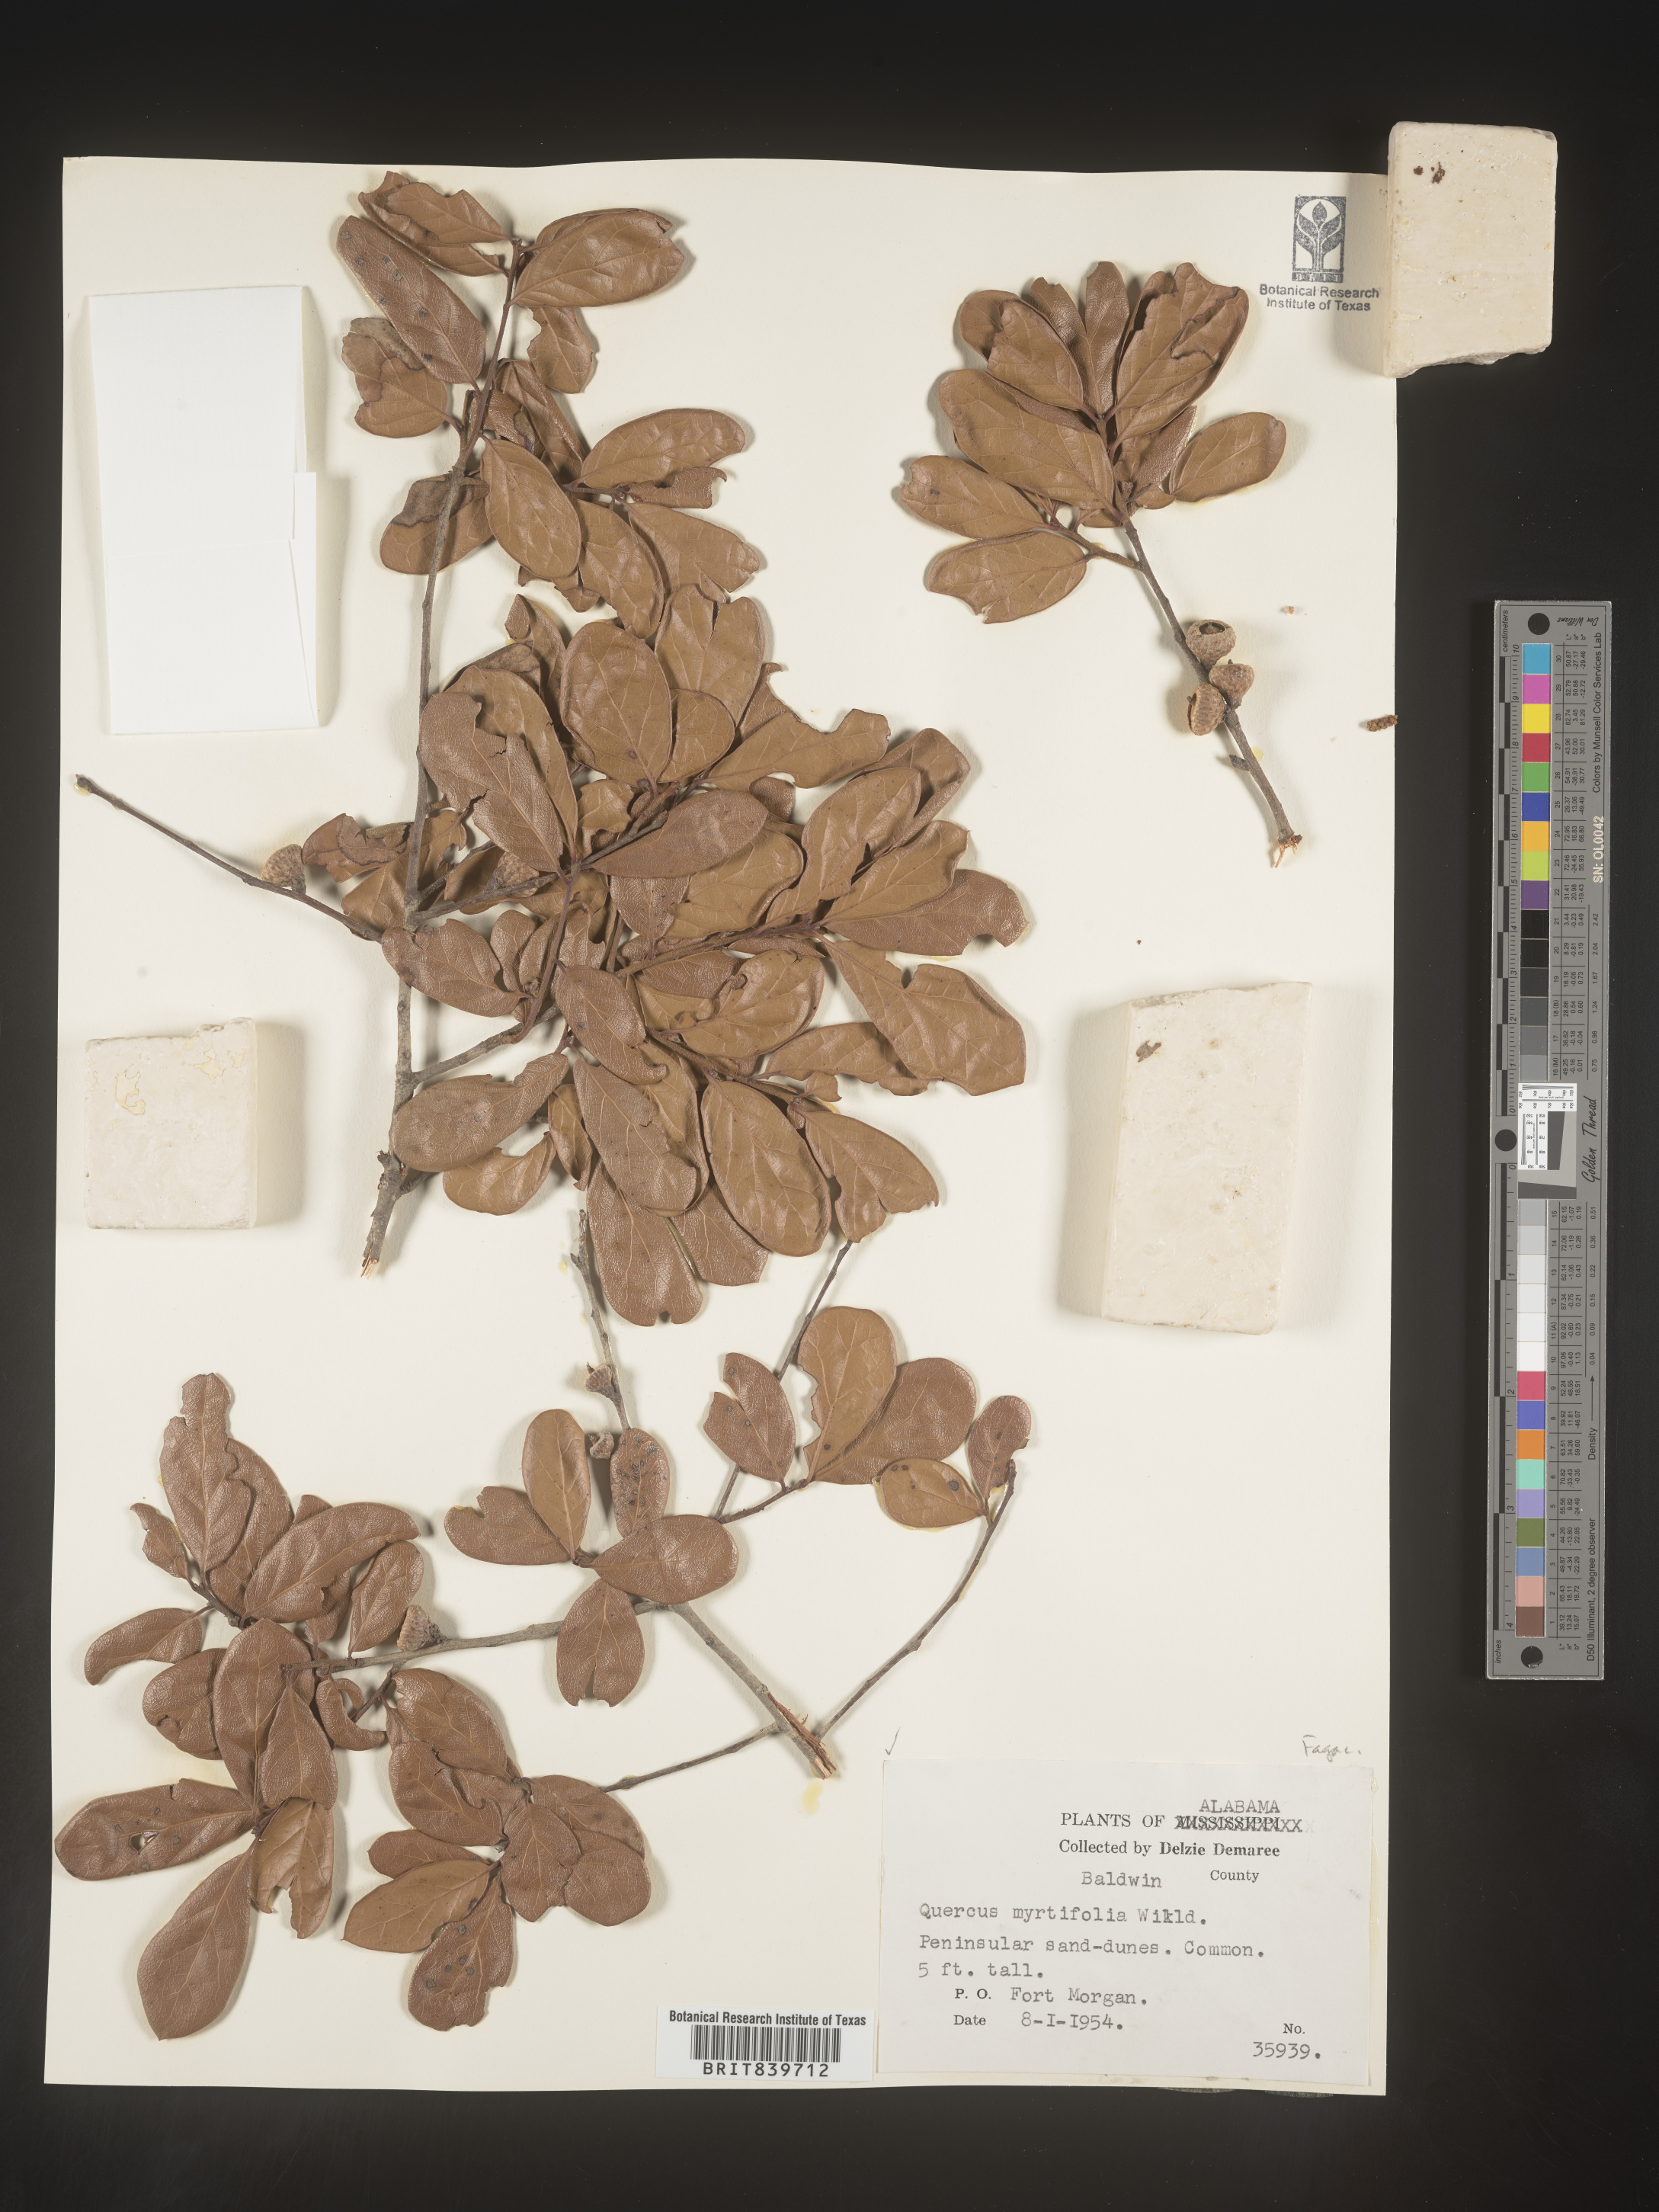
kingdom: Plantae
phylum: Tracheophyta
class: Magnoliopsida
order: Fagales
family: Fagaceae
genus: Quercus
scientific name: Quercus
